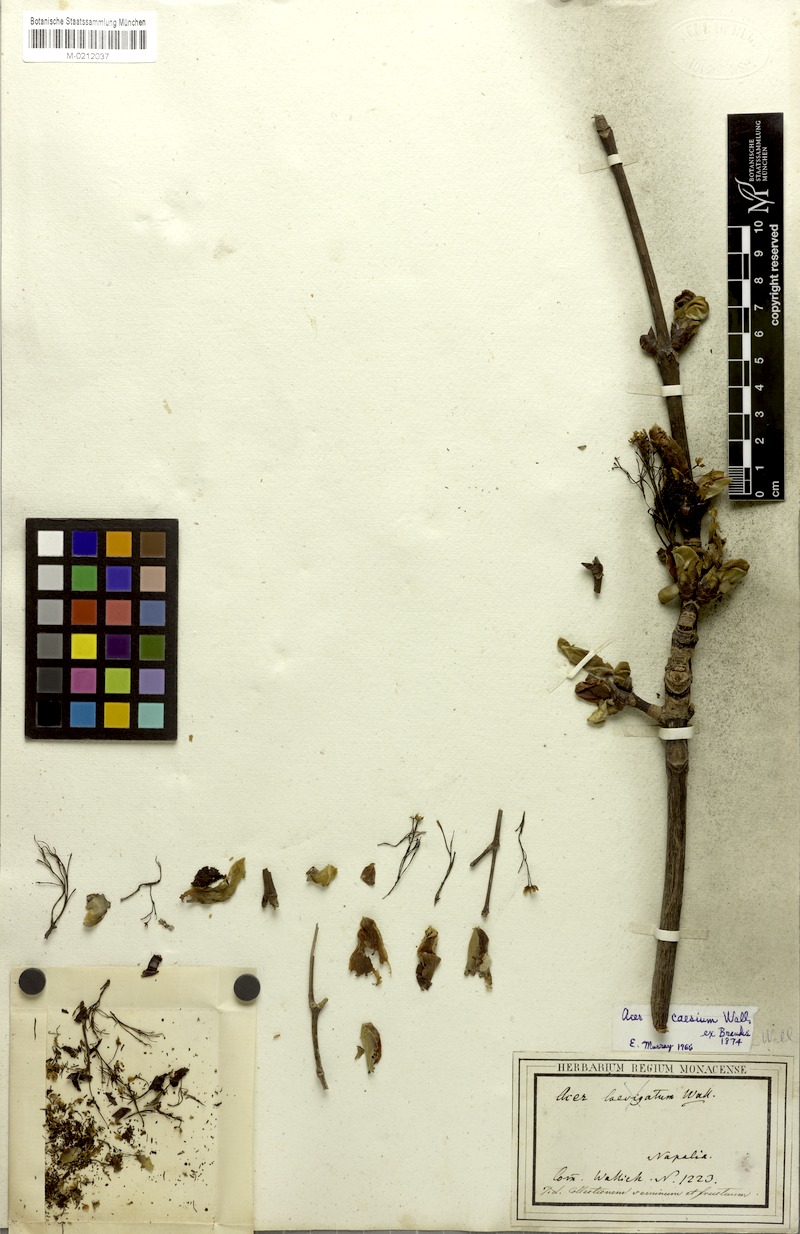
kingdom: Plantae
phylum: Tracheophyta
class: Magnoliopsida
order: Sapindales
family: Sapindaceae
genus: Acer
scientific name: Acer caesium
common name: Indian maple
